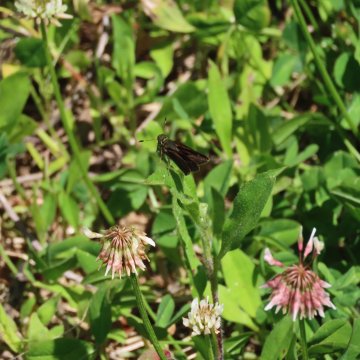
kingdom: Animalia
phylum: Arthropoda
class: Insecta
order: Lepidoptera
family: Hesperiidae
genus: Euphyes
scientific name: Euphyes vestris
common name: Dun Skipper
